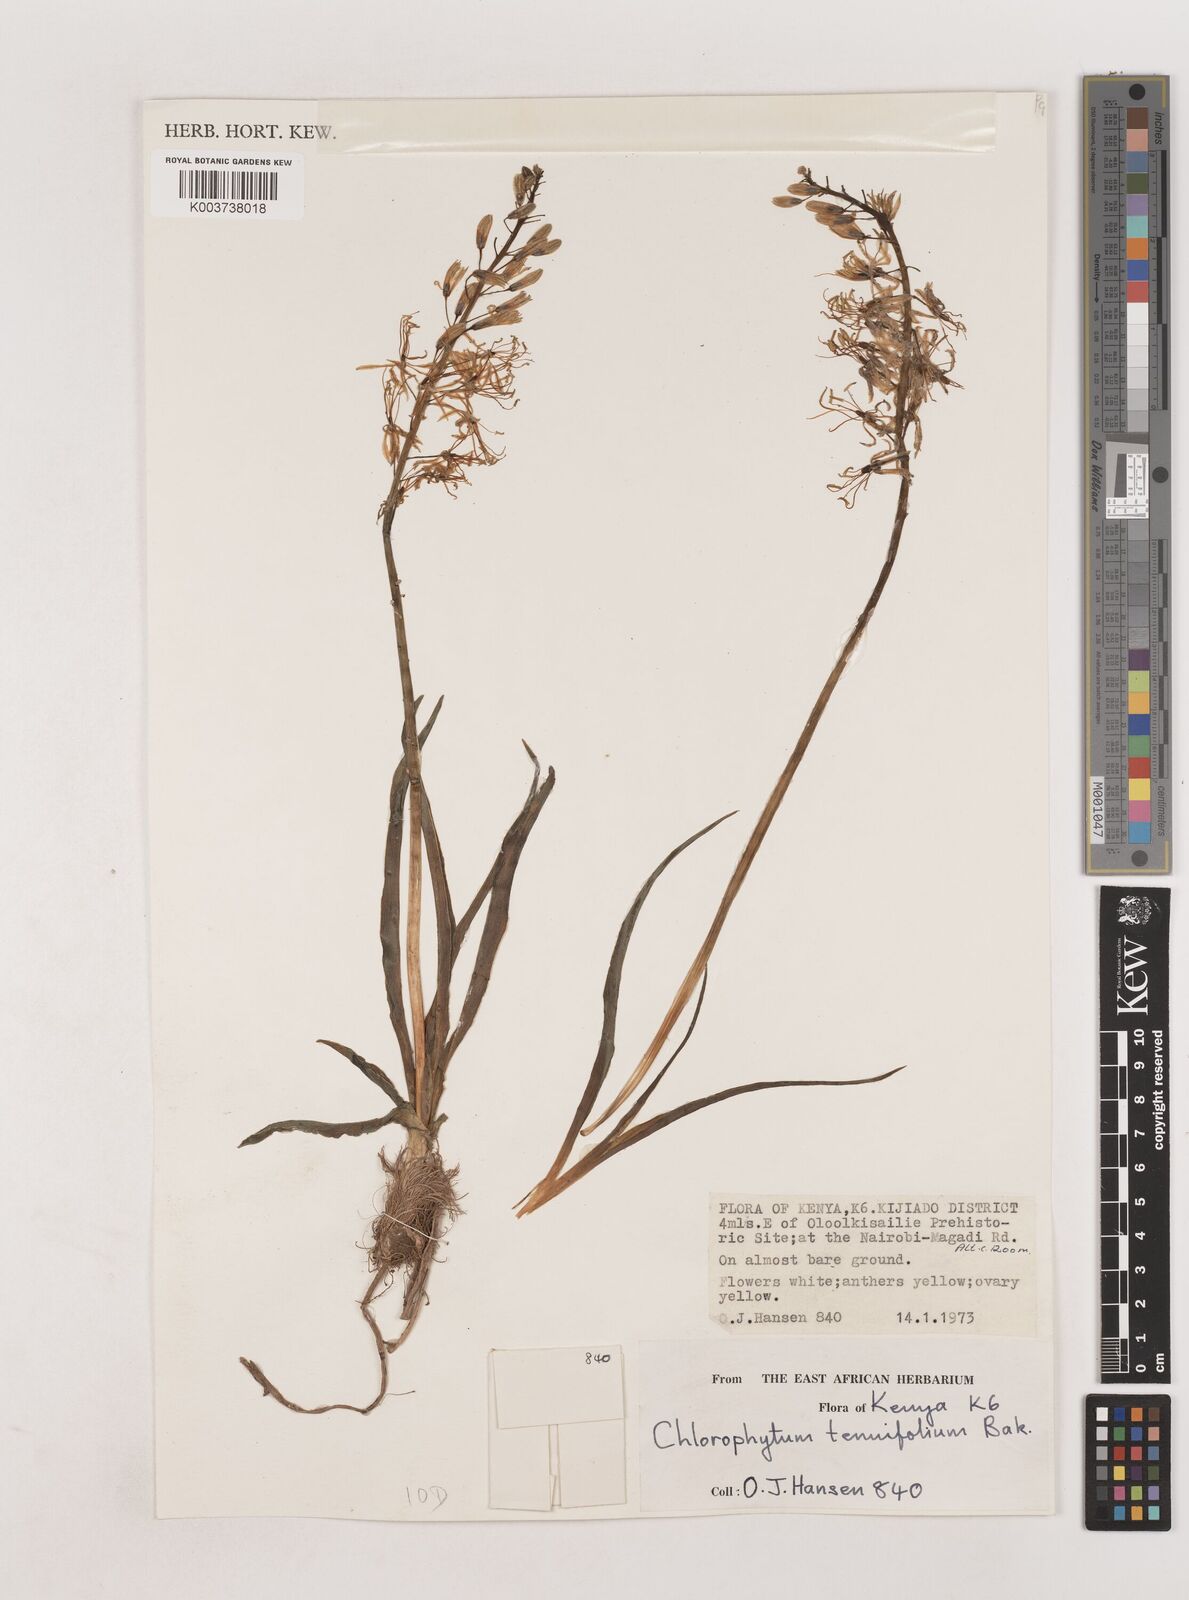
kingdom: Plantae
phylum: Tracheophyta
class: Liliopsida
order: Asparagales
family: Asparagaceae
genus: Chlorophytum
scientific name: Chlorophytum somaliense
